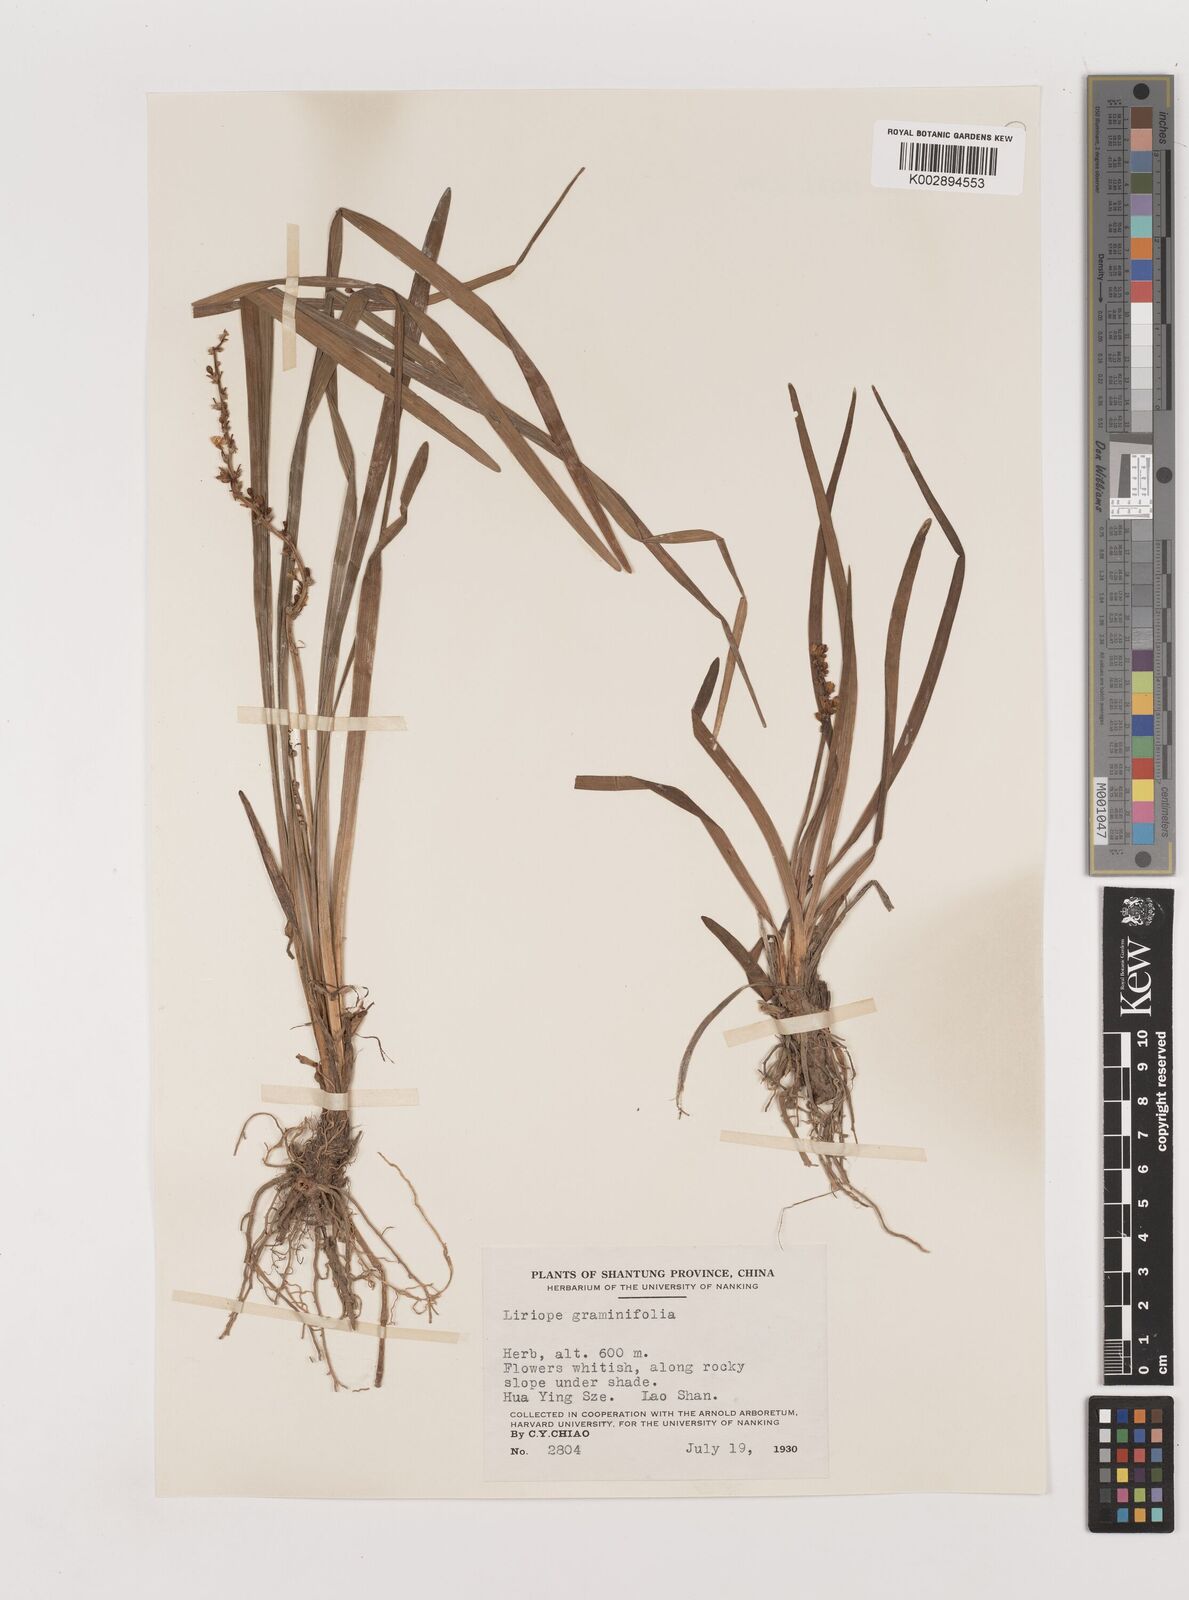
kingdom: Plantae
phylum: Tracheophyta
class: Liliopsida
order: Asparagales
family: Asparagaceae
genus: Liriope
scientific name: Liriope spicata
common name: Creeping liriope
